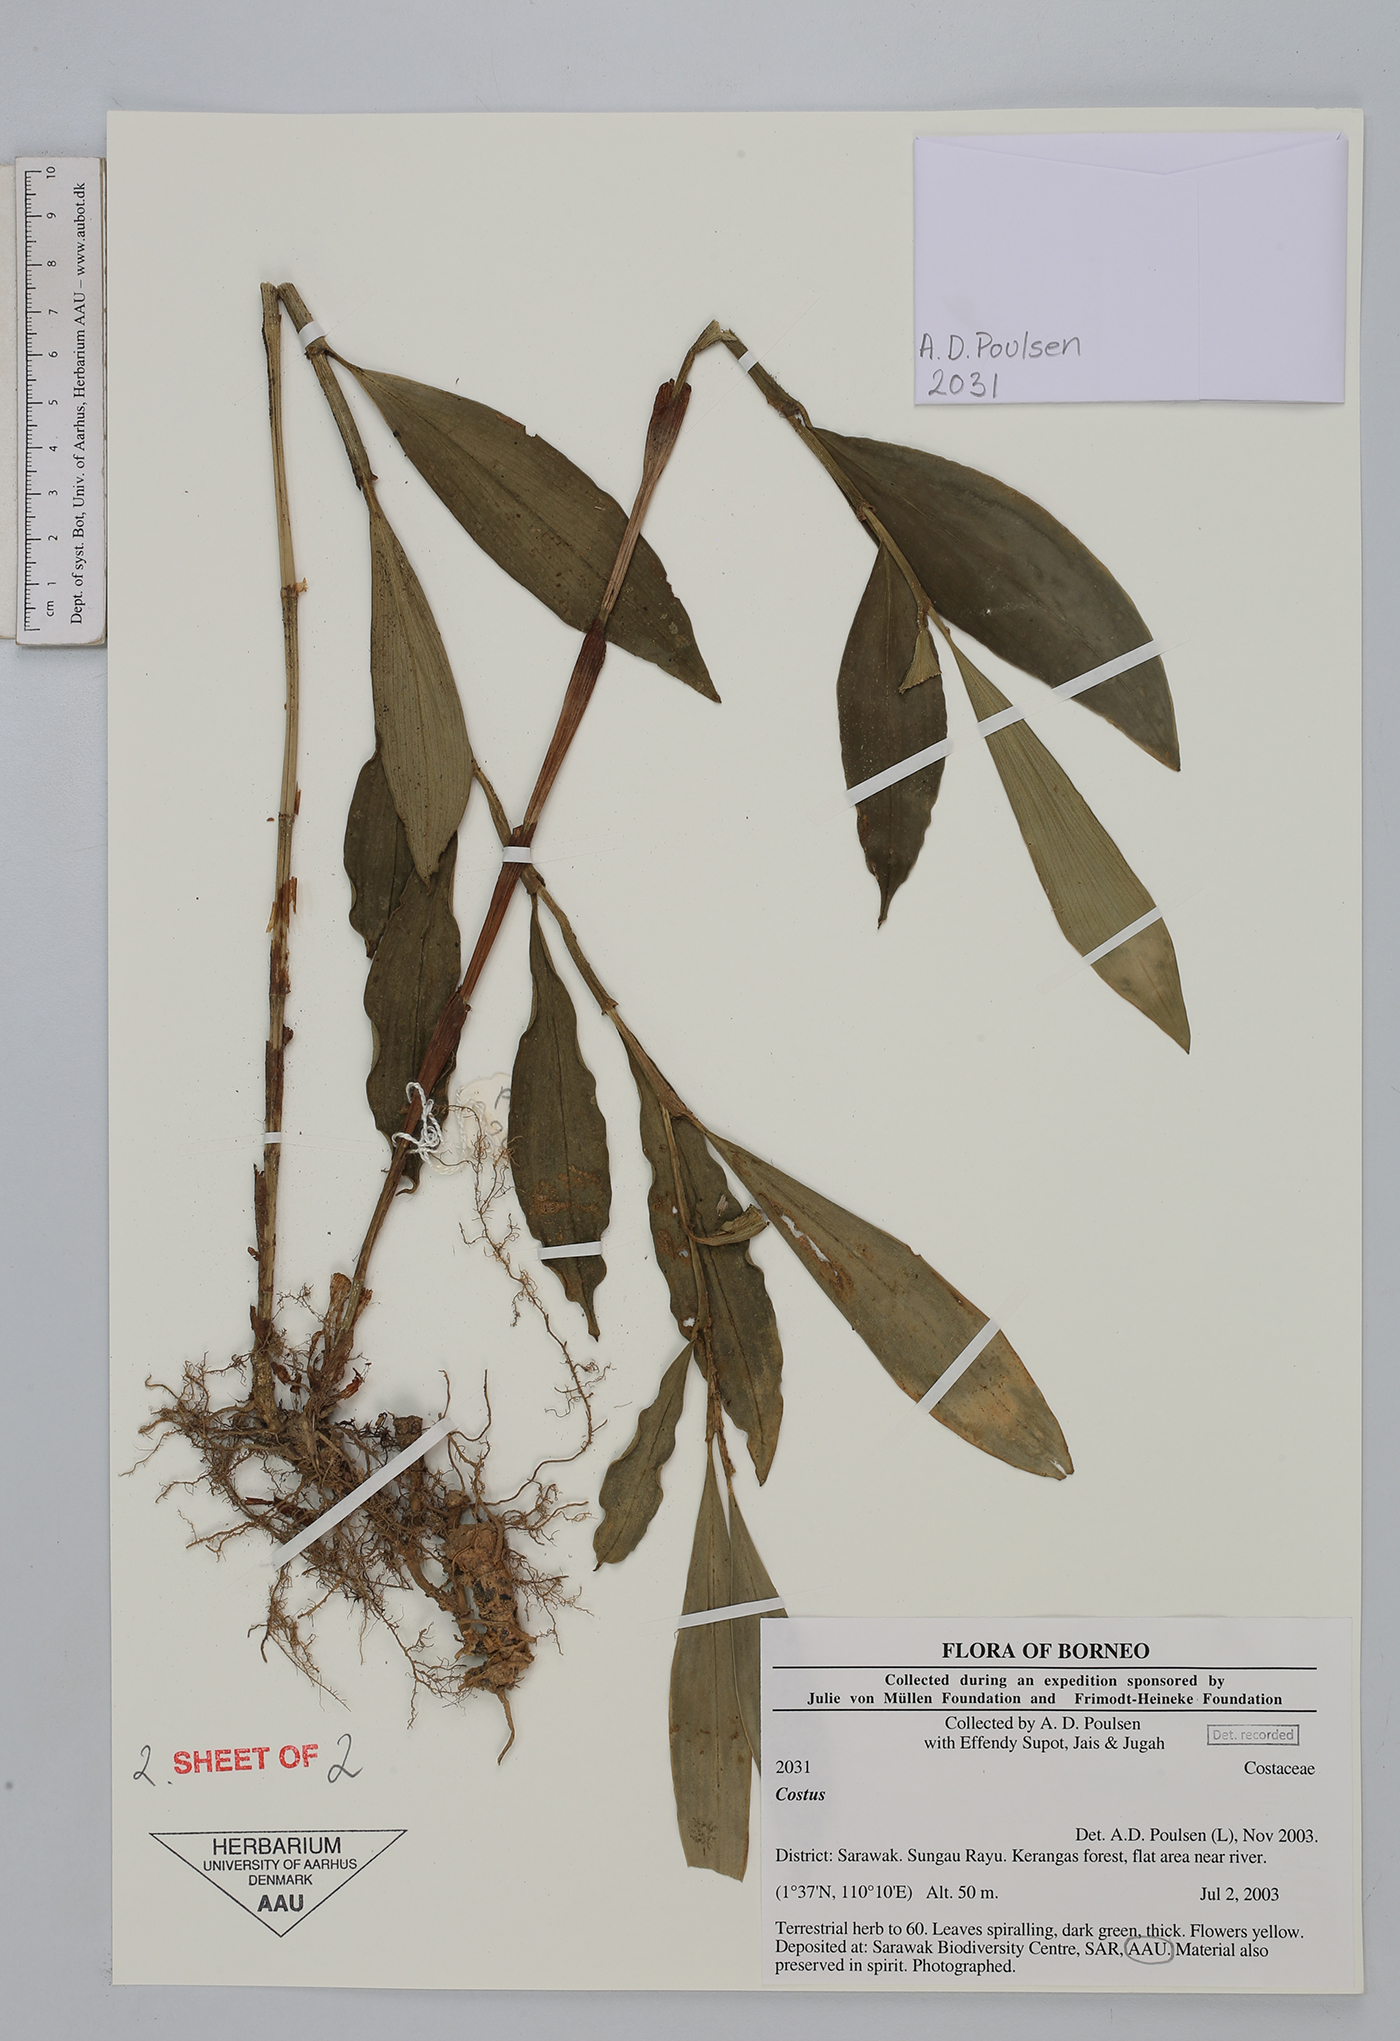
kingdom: Plantae
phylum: Tracheophyta
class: Liliopsida
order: Zingiberales
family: Costaceae
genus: Hellenia
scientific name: Hellenia globosa
